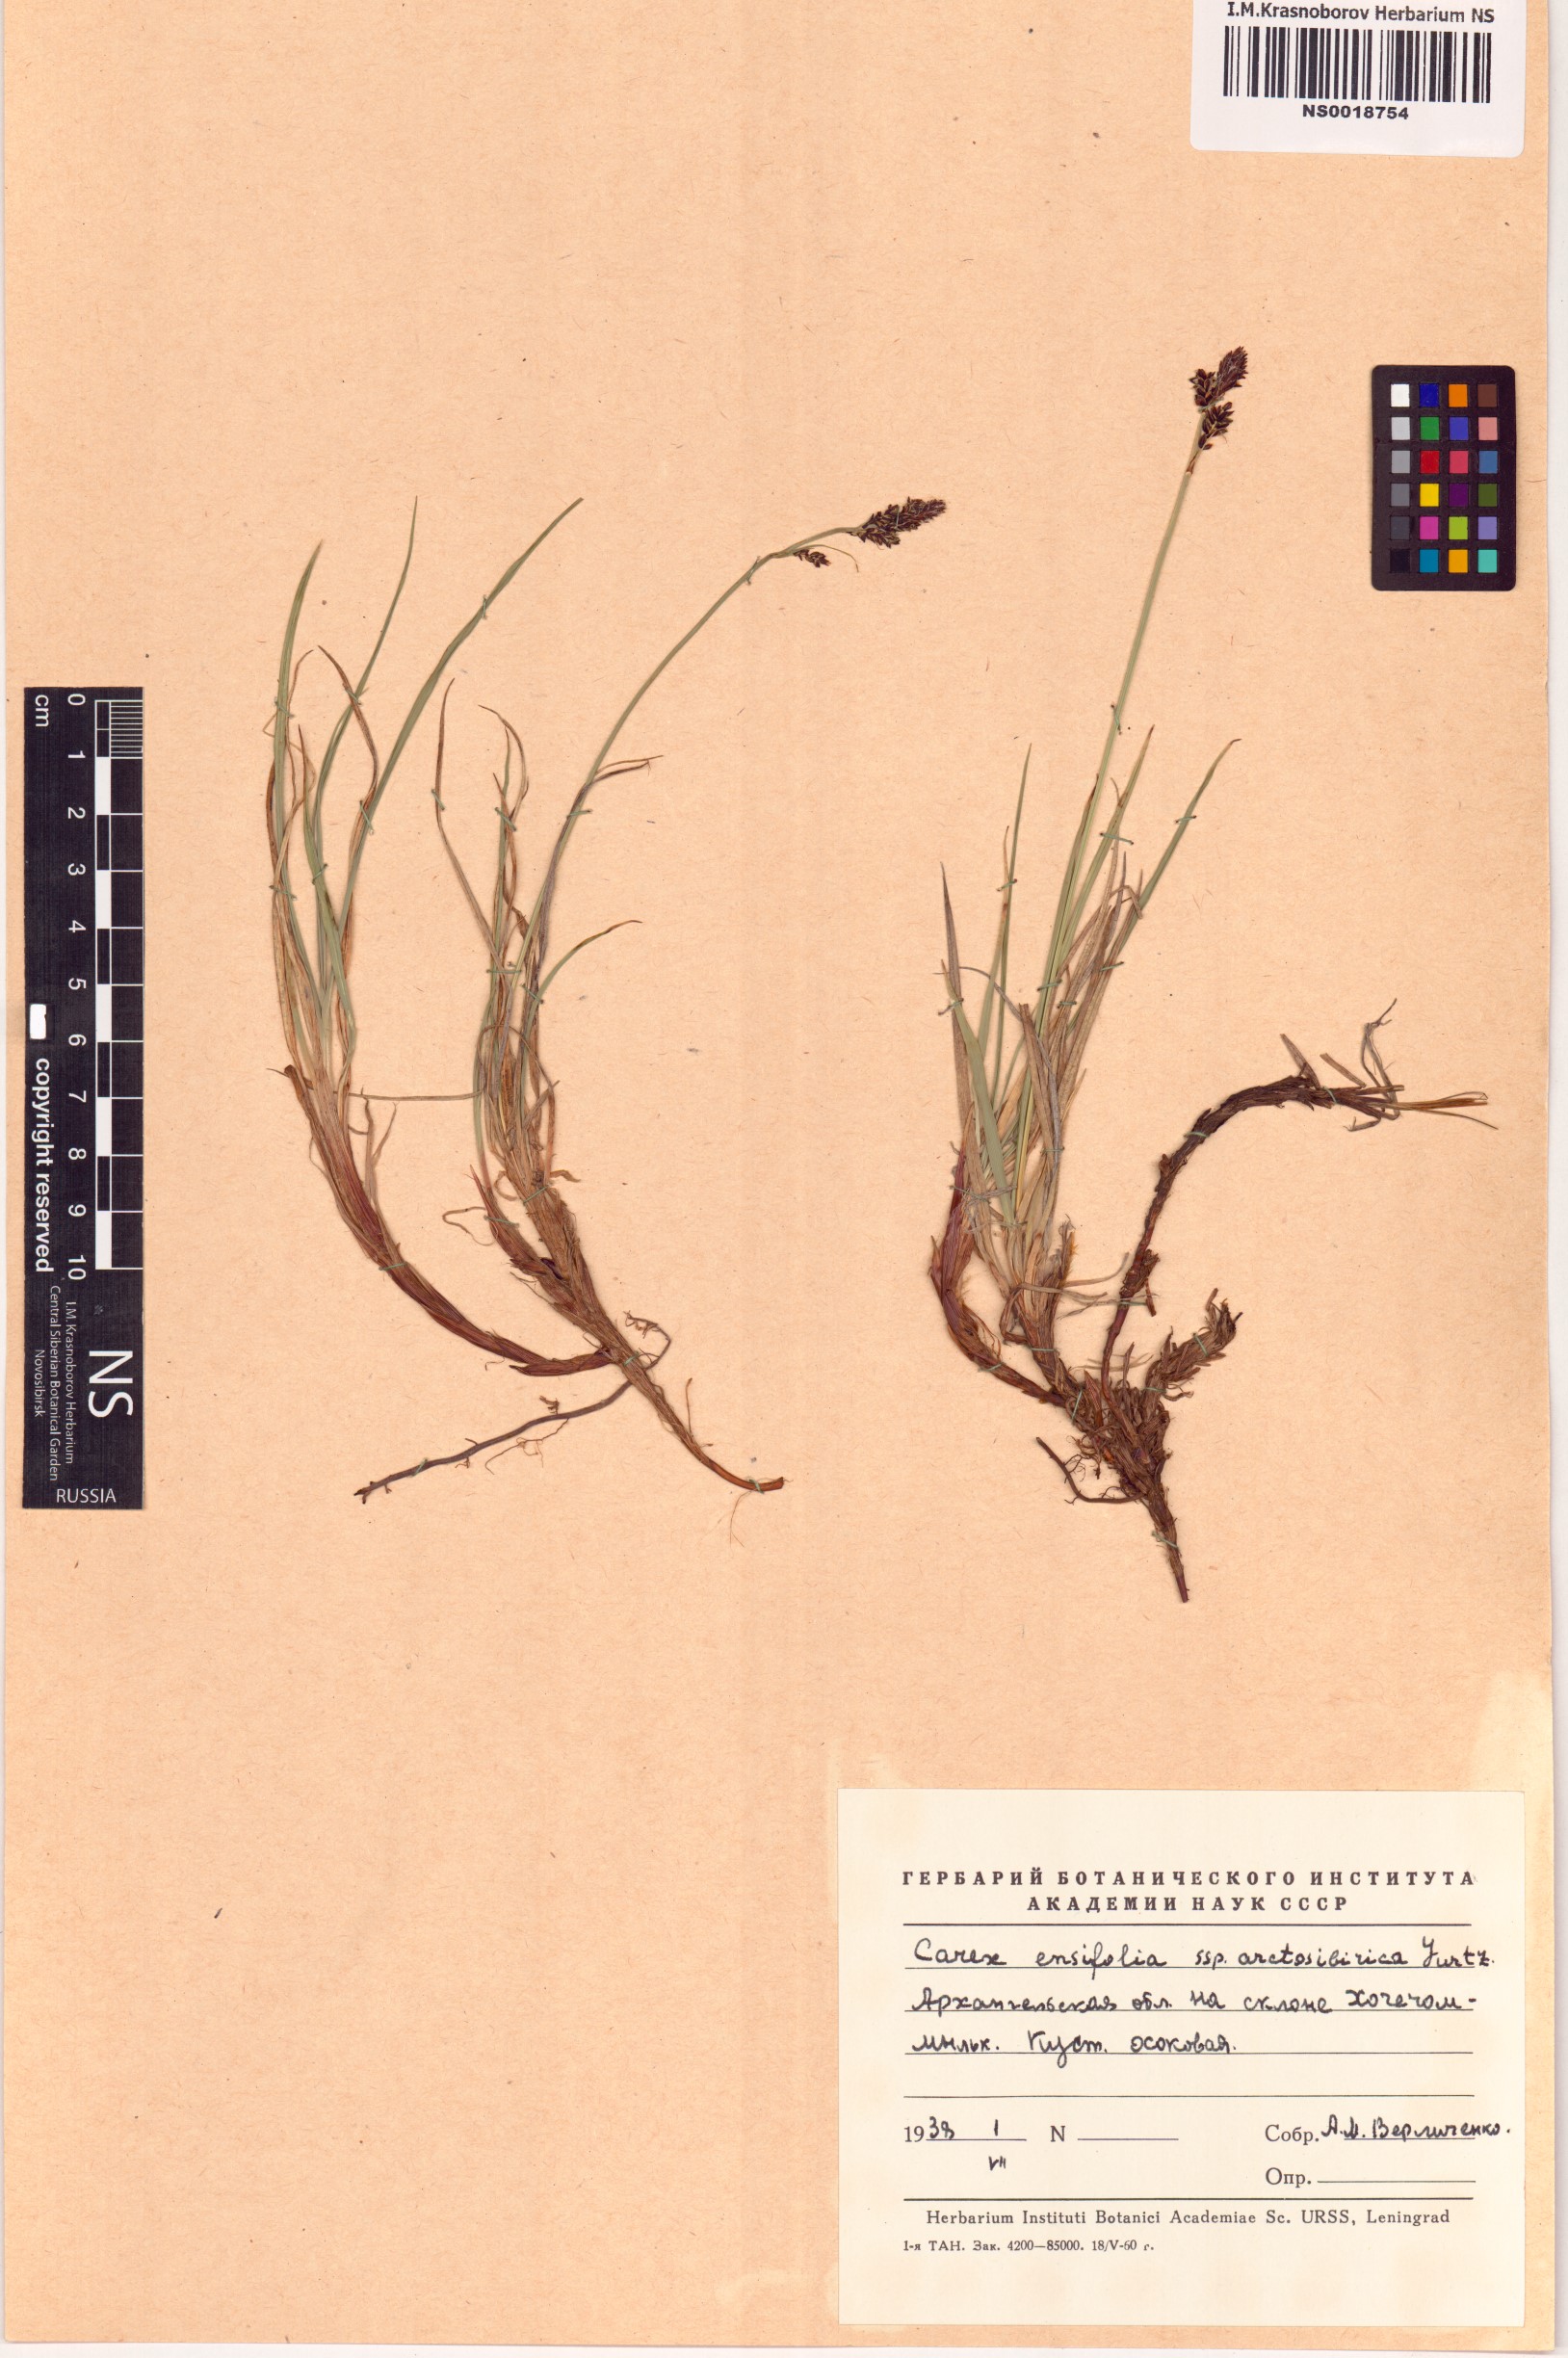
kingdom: Plantae
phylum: Tracheophyta
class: Liliopsida
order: Poales
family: Cyperaceae
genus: Carex
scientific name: Carex bigelowii
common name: Stiff sedge
